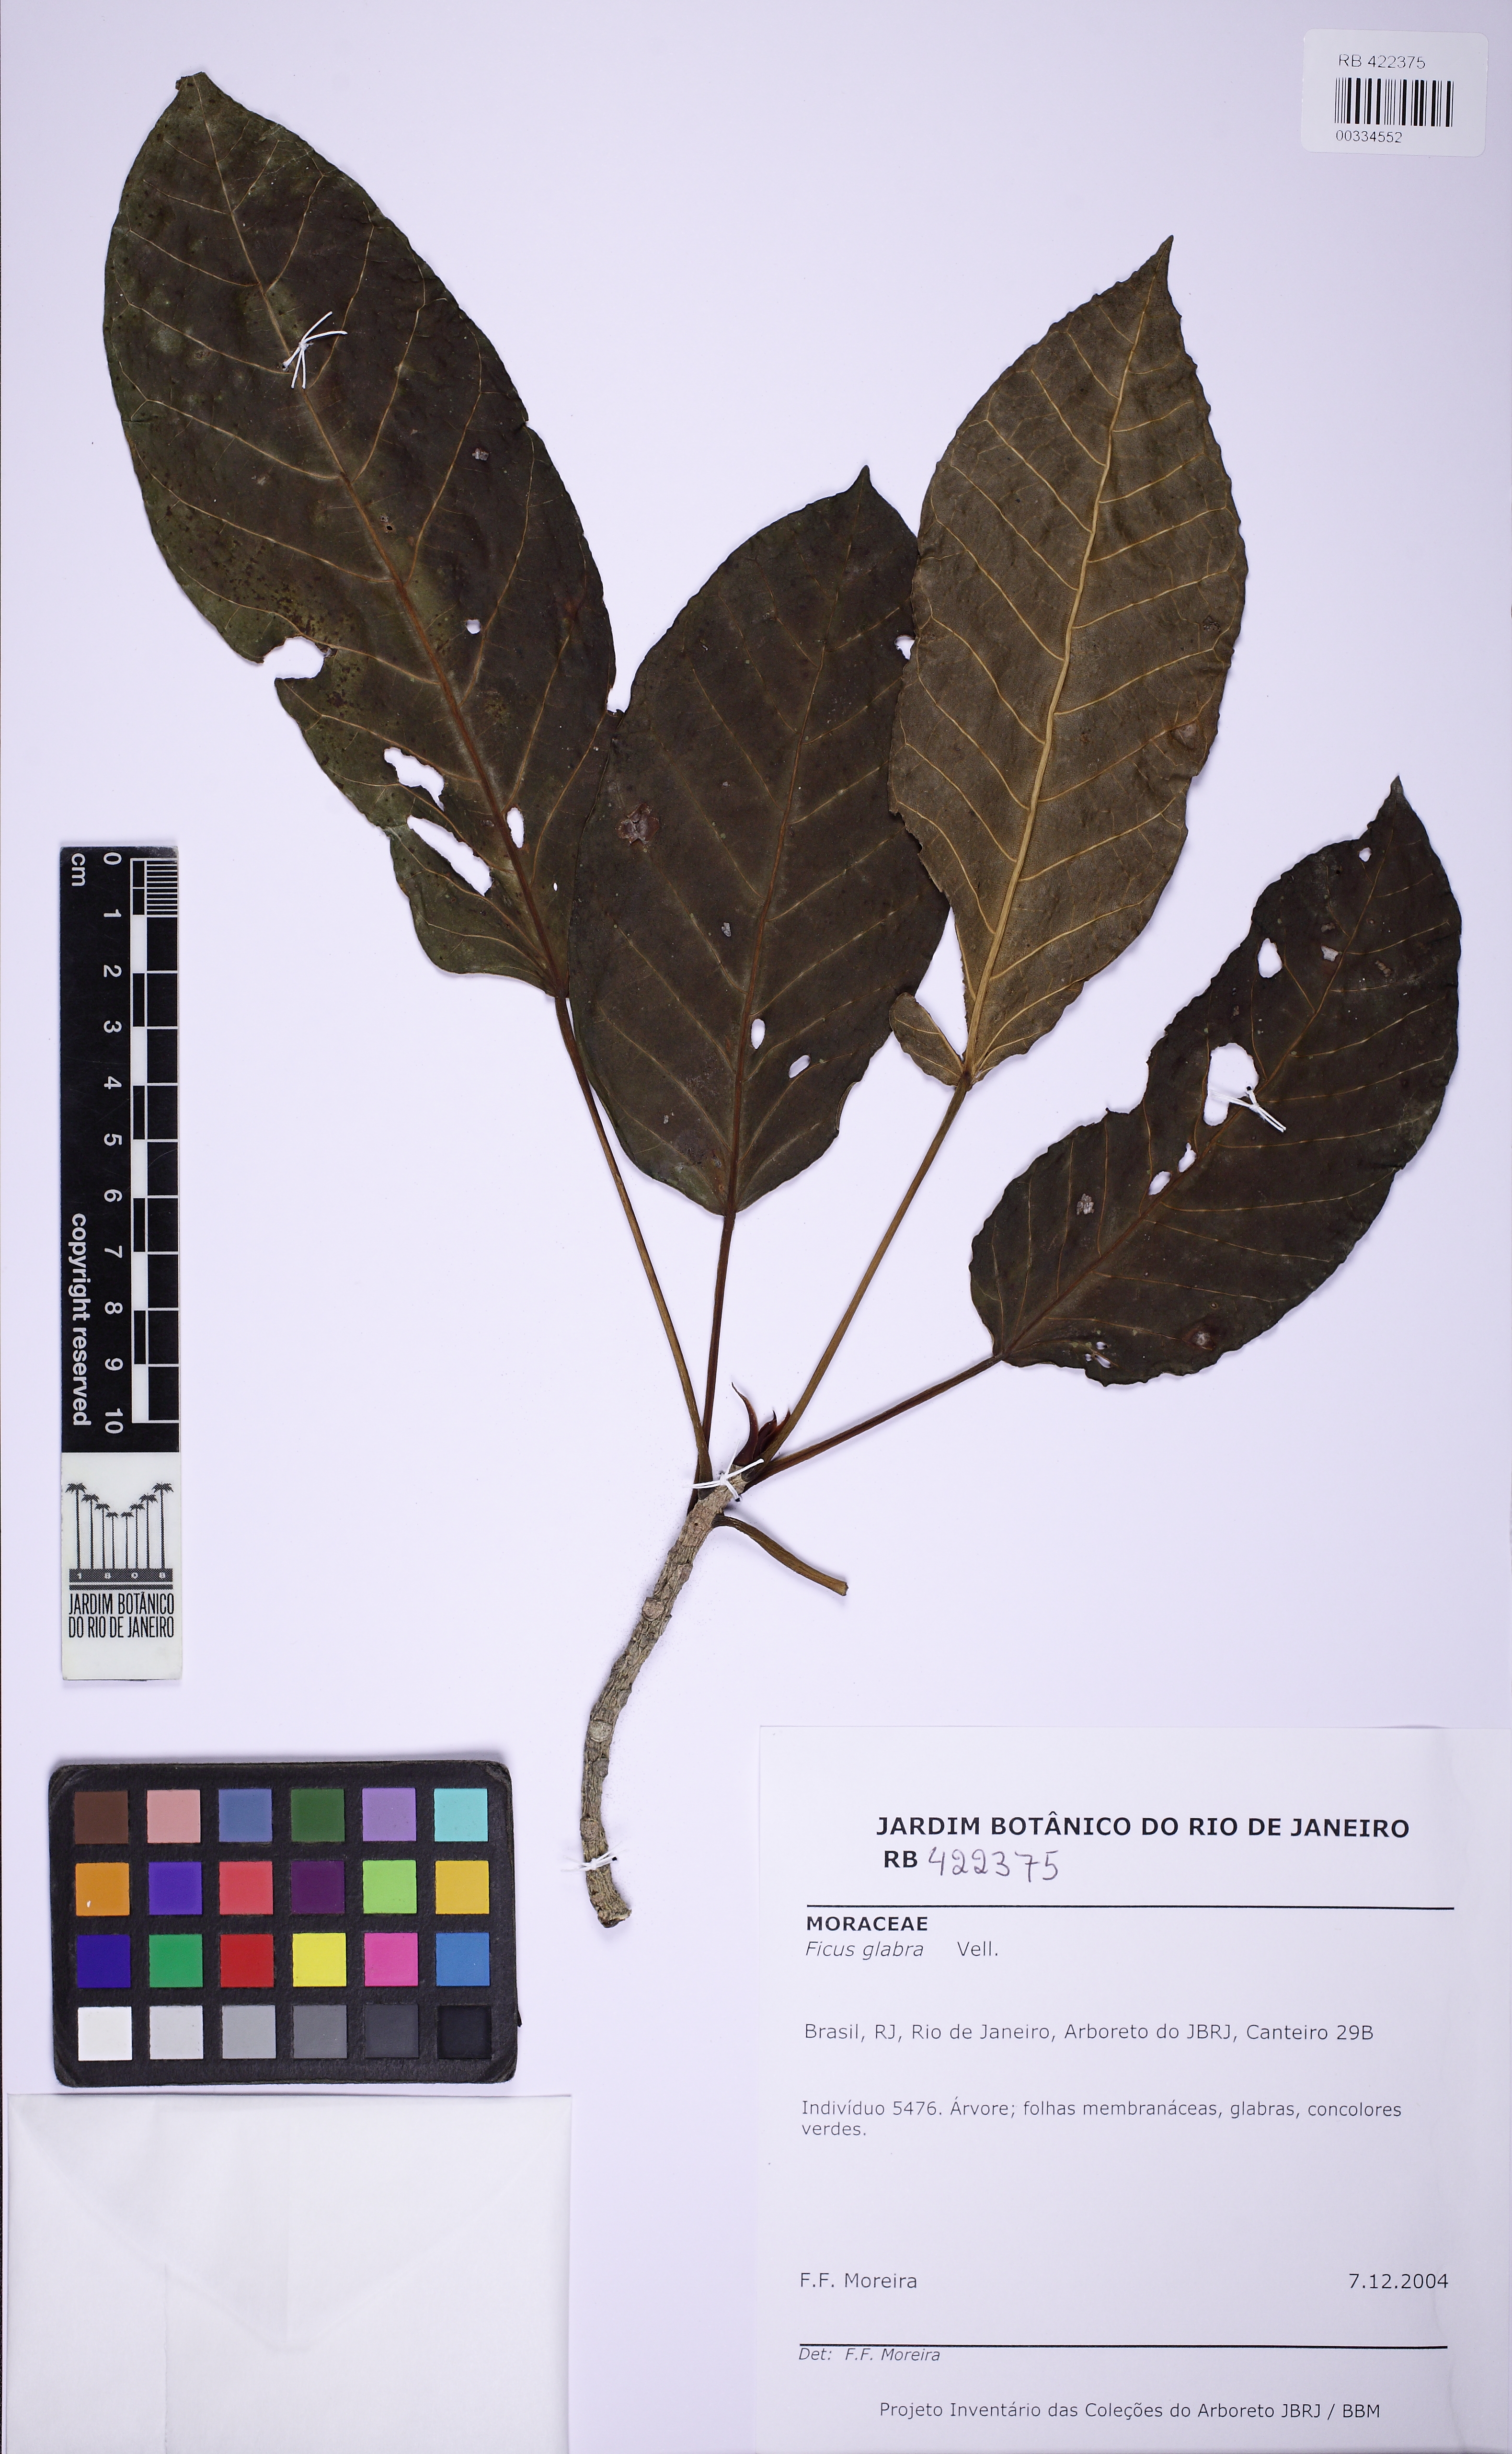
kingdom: Plantae
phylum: Tracheophyta
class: Magnoliopsida
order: Rosales
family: Moraceae
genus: Ficus
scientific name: Ficus eximia
